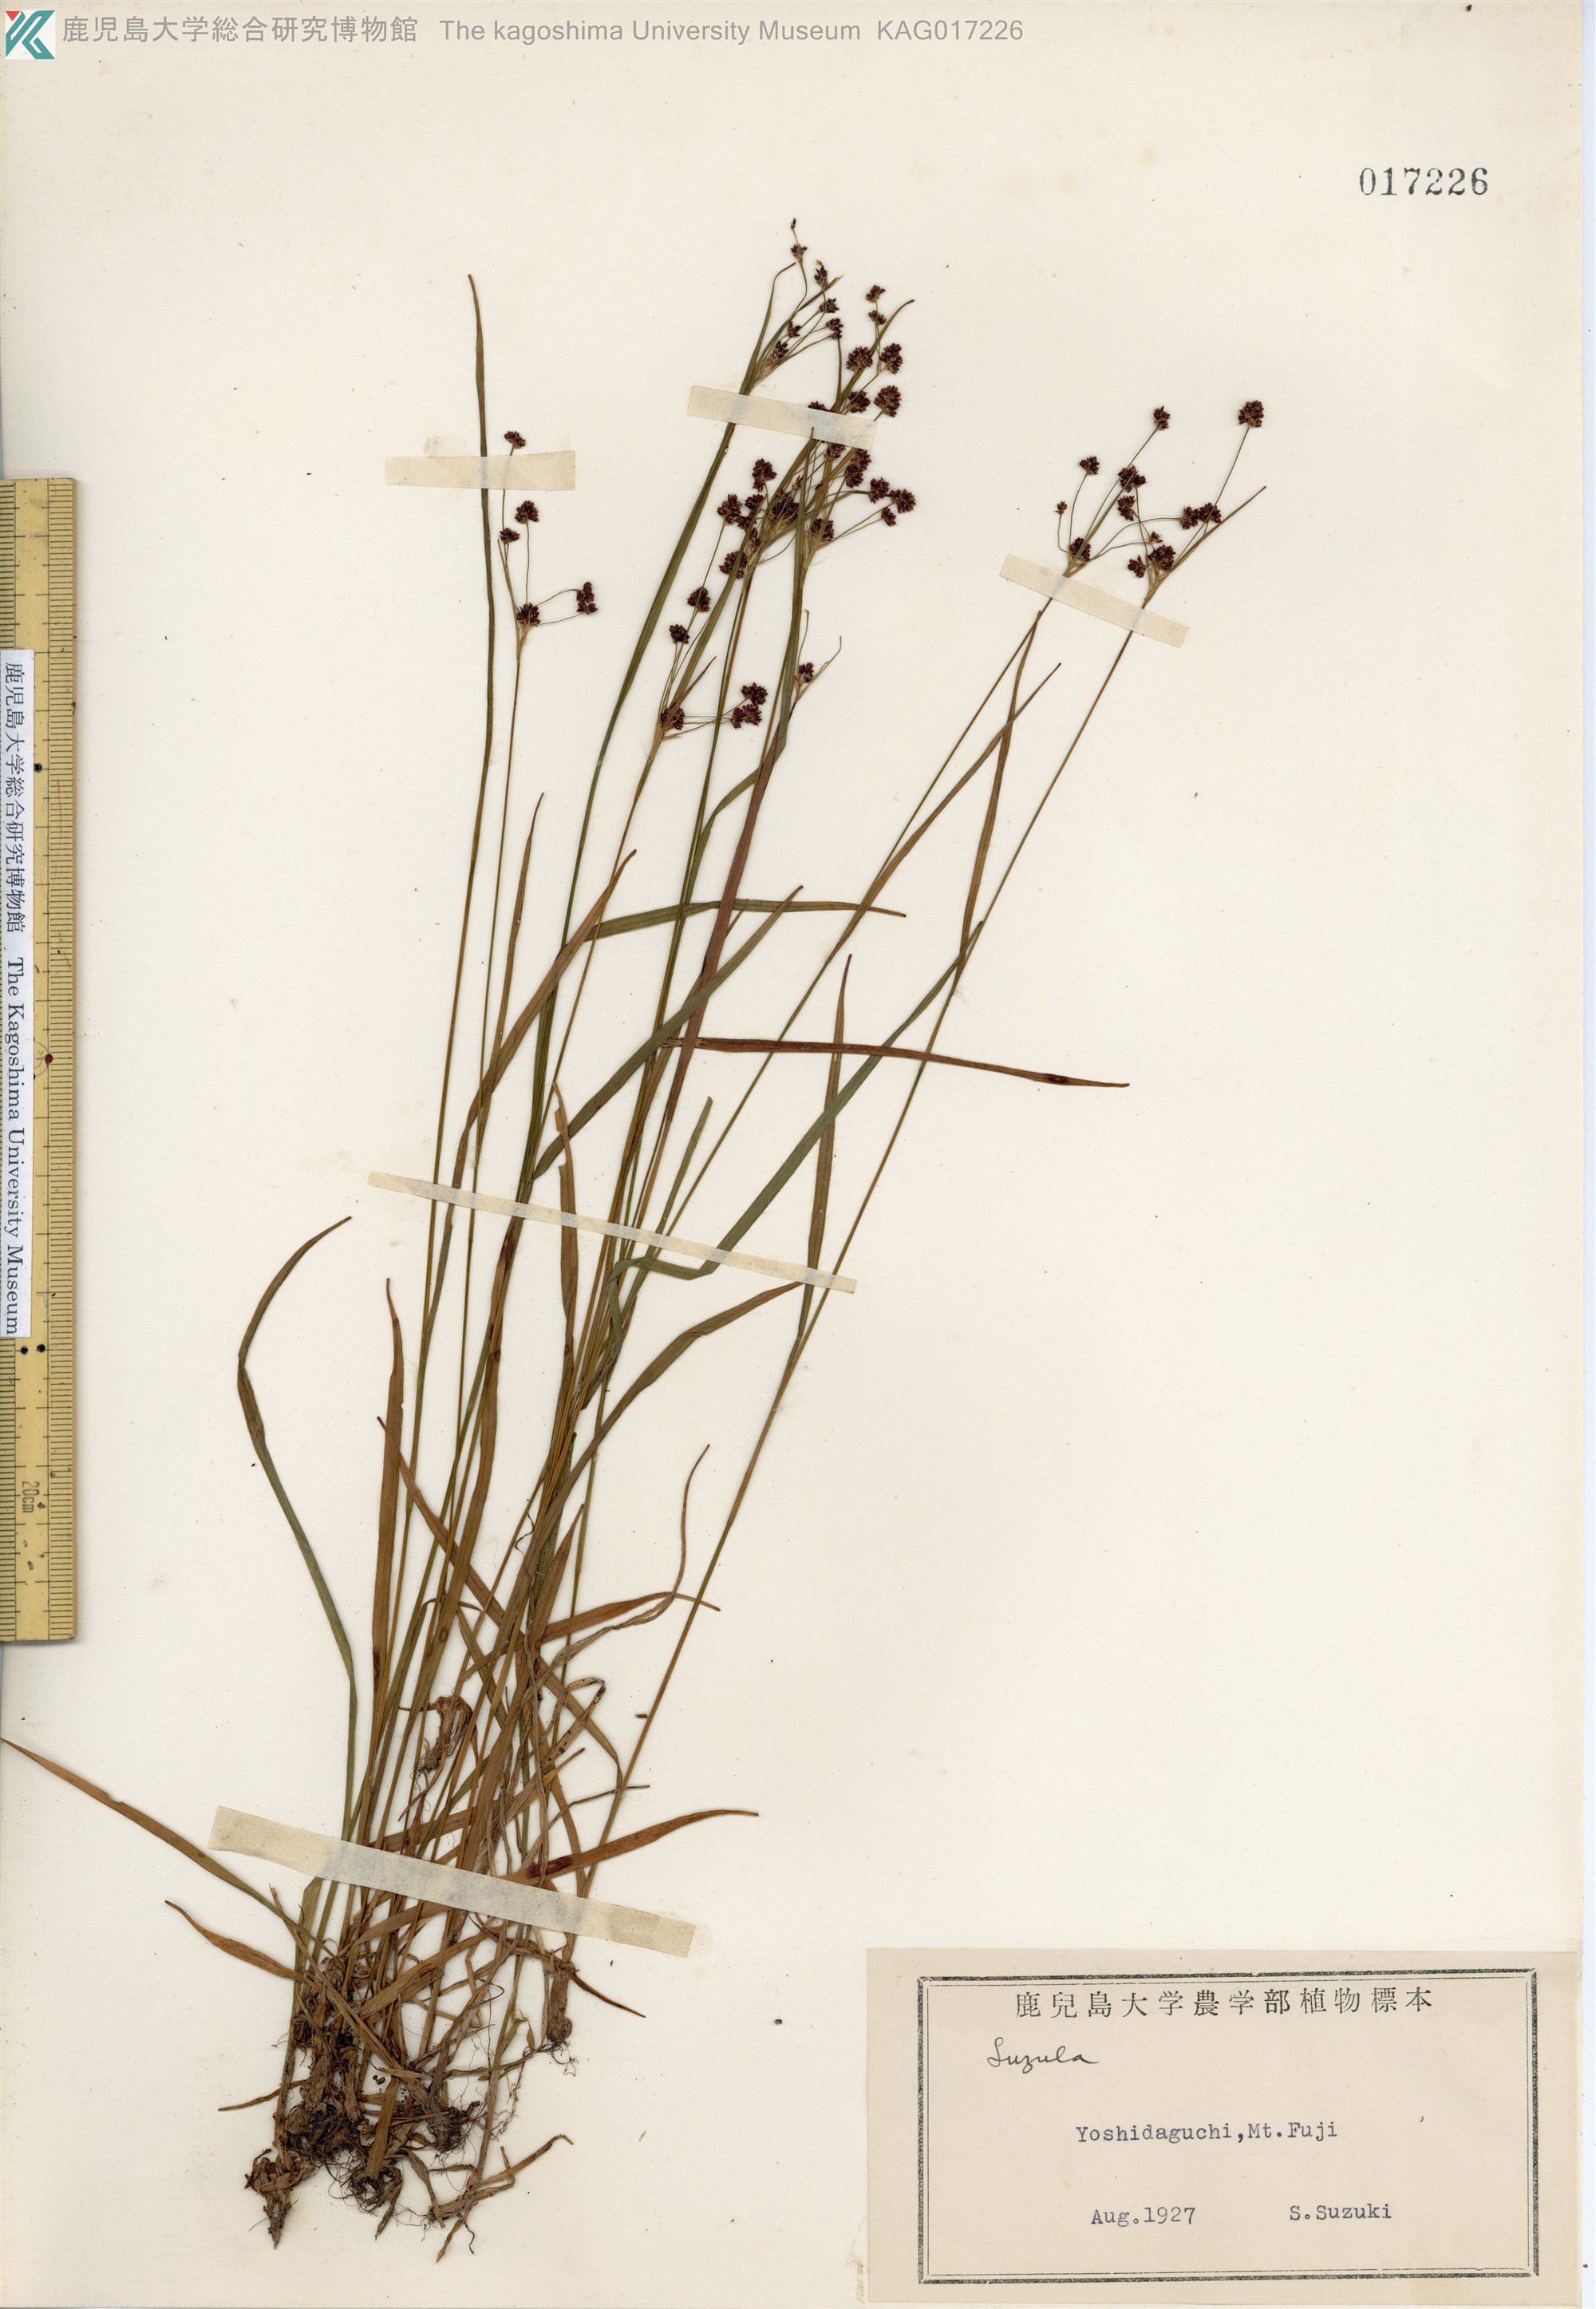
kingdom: Plantae
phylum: Tracheophyta
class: Liliopsida
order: Poales
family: Juncaceae
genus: Luzula
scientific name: Luzula oligantha
